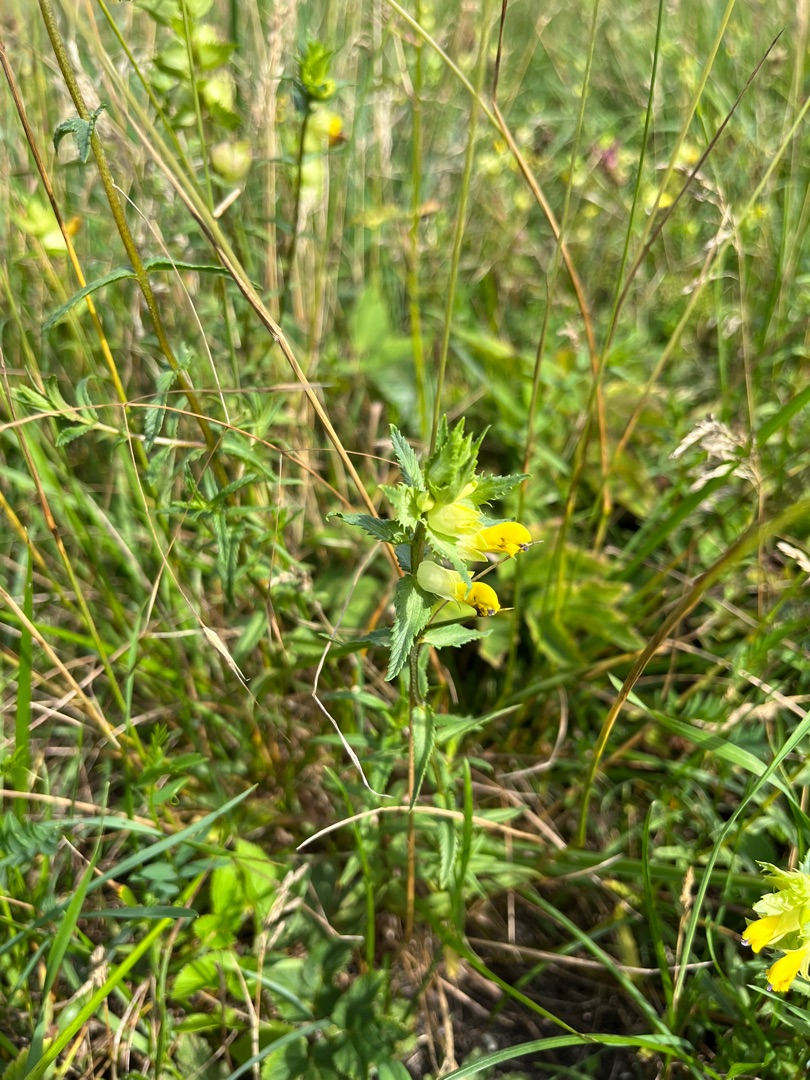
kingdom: Plantae
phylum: Tracheophyta
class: Magnoliopsida
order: Lamiales
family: Orobanchaceae
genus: Rhinanthus
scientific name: Rhinanthus
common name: Stor skjaller
